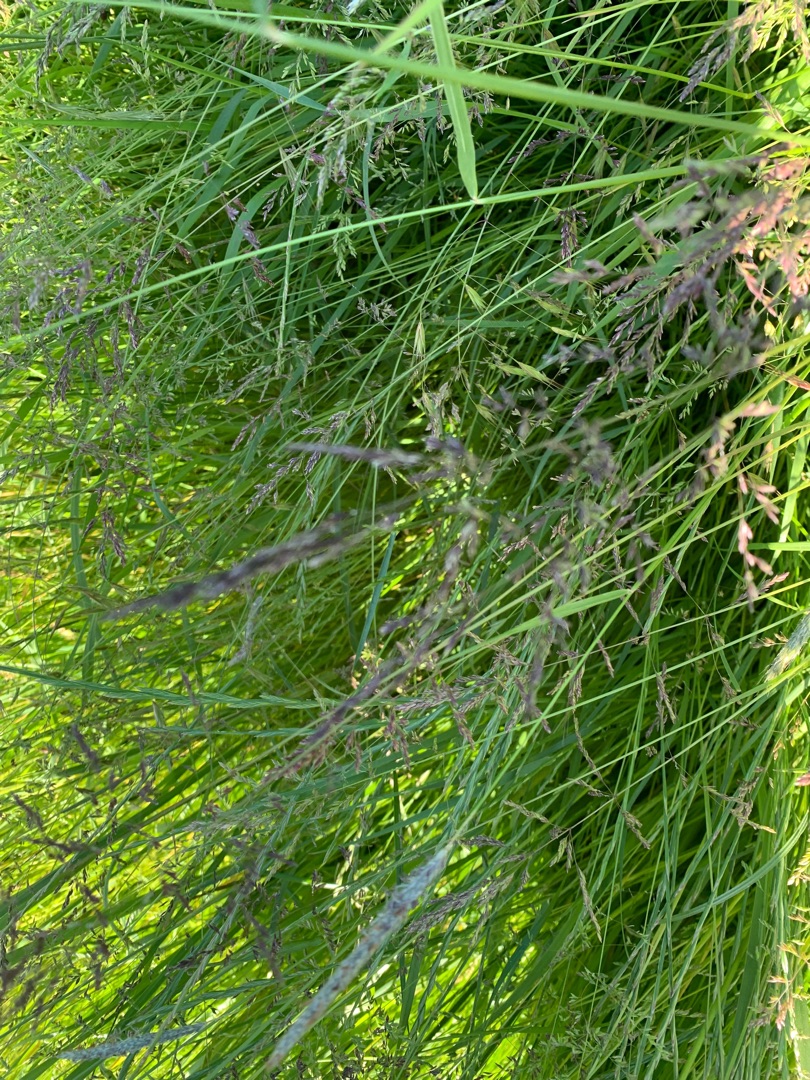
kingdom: Plantae
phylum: Tracheophyta
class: Liliopsida
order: Poales
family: Poaceae
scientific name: Poaceae
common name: Græsfamilien
